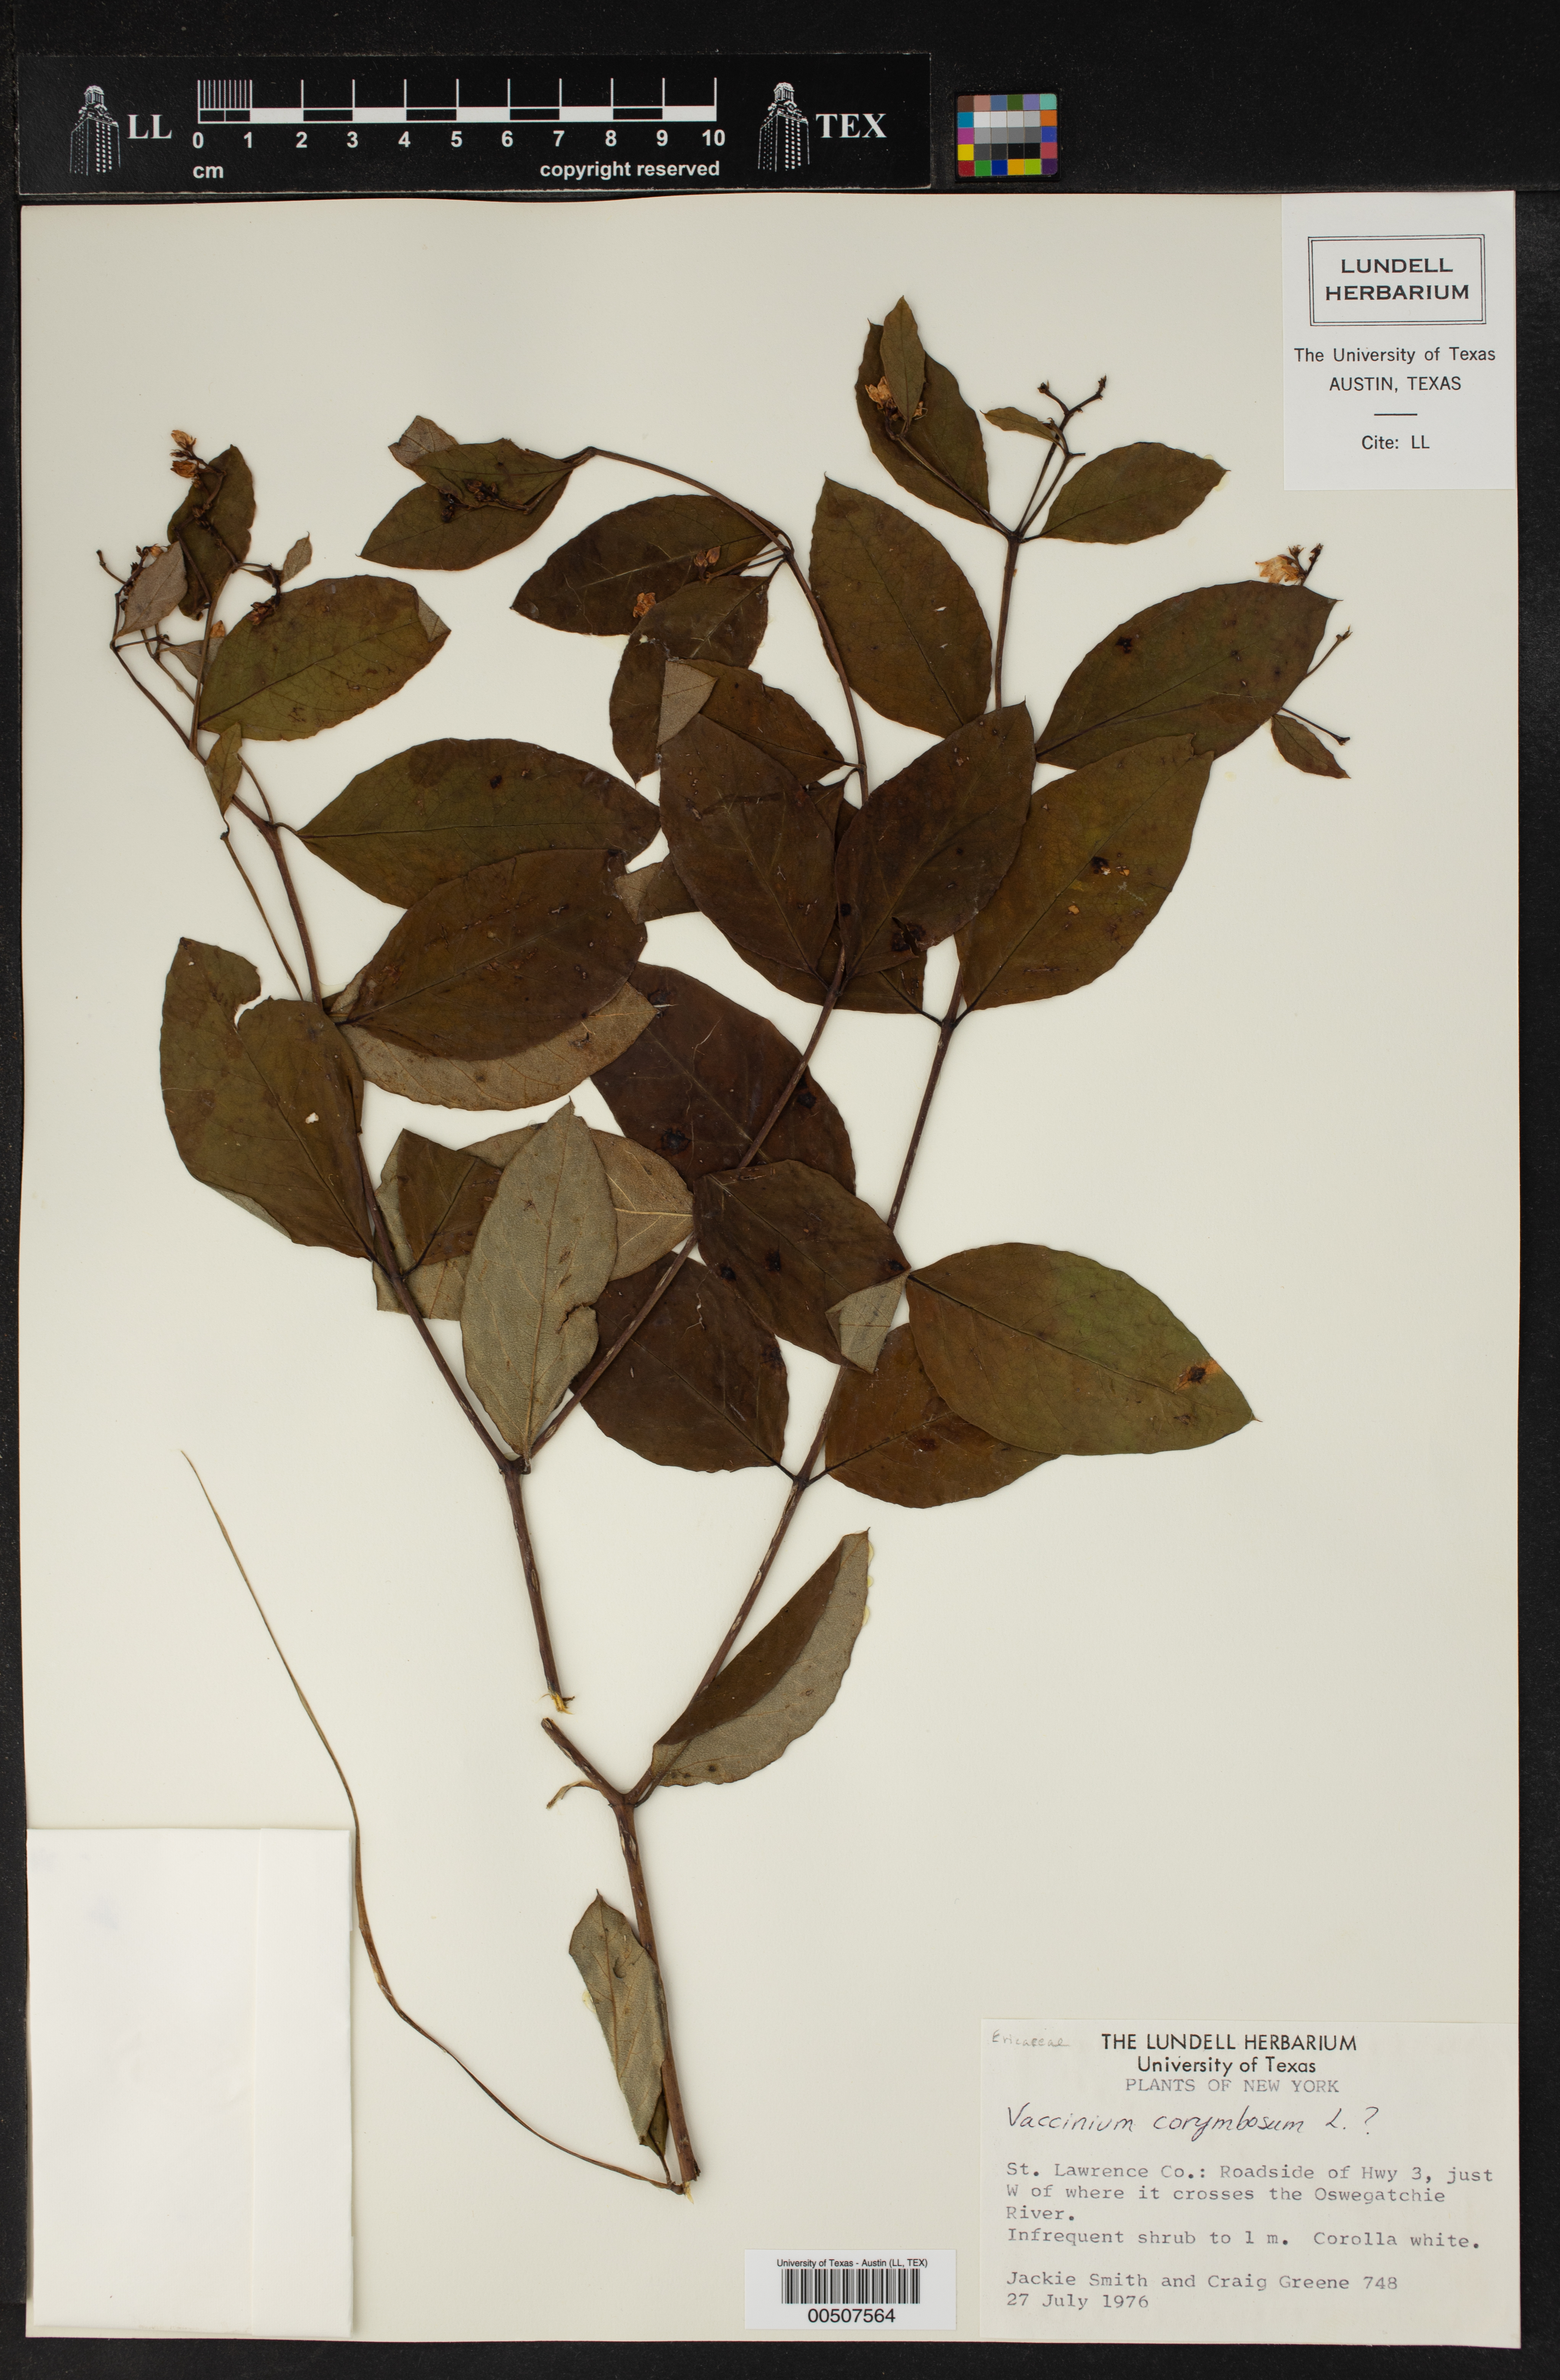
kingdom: Plantae
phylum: Tracheophyta
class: Magnoliopsida
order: Ericales
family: Ericaceae
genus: Vaccinium
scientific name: Vaccinium corymbosum
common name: Blueberry
